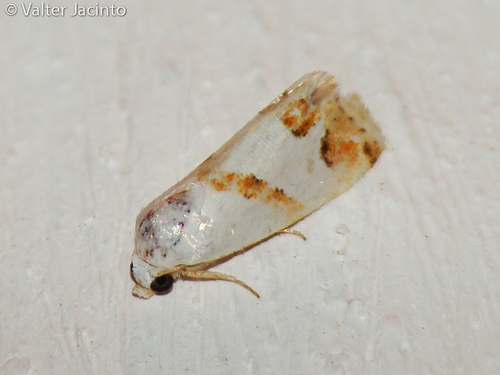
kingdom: Animalia
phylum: Arthropoda
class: Insecta
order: Lepidoptera
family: Noctuidae
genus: Eublemma
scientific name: Eublemma candidana
